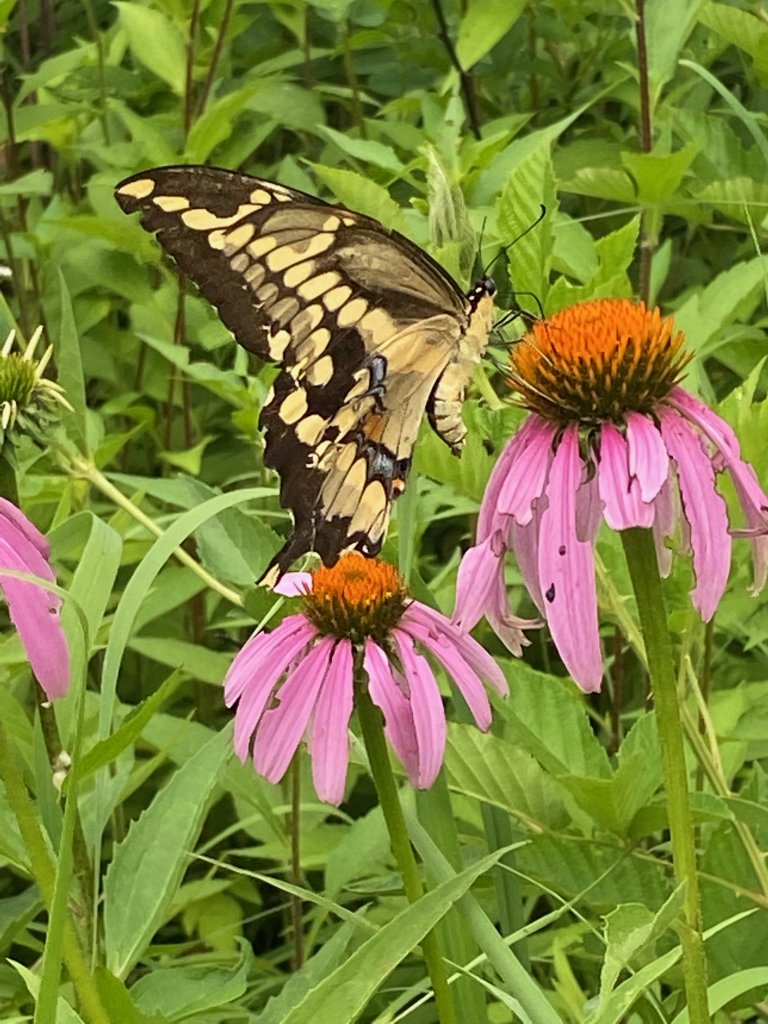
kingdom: Animalia
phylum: Arthropoda
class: Insecta
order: Lepidoptera
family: Papilionidae
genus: Papilio
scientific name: Papilio cresphontes
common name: Eastern Giant Swallowtail
